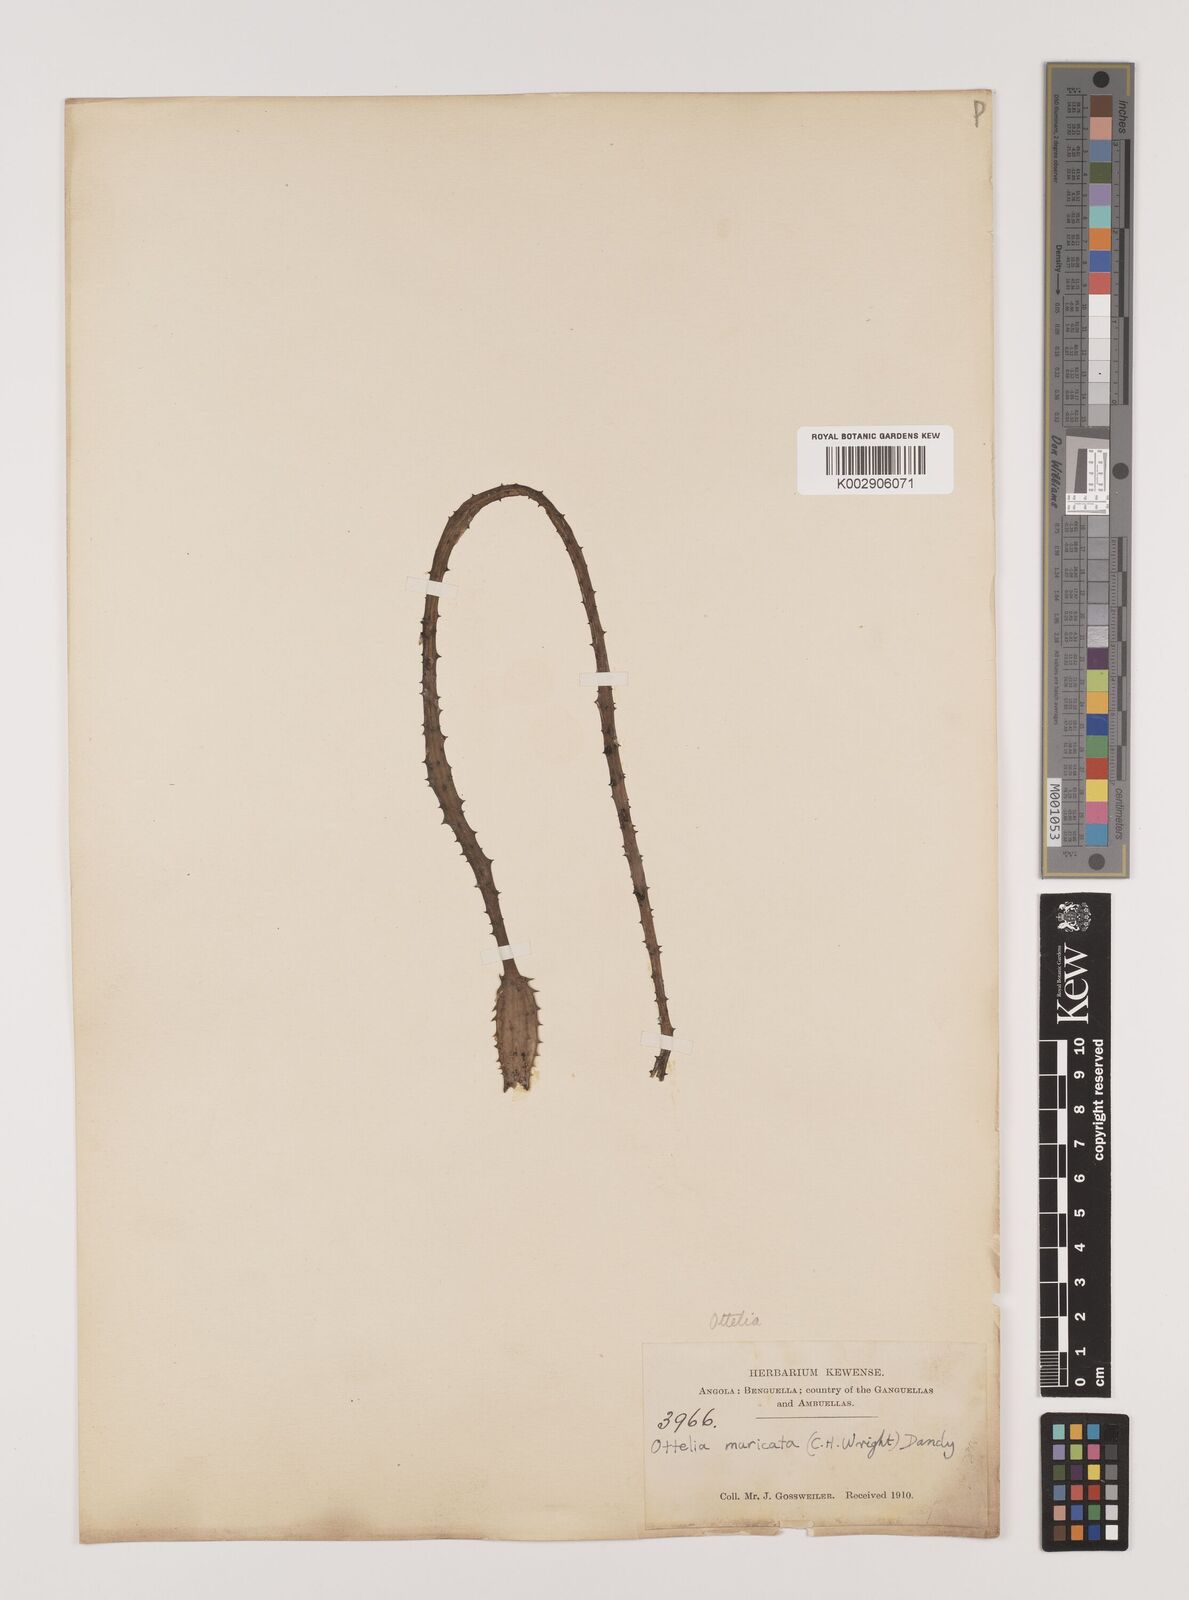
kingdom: Plantae
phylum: Tracheophyta
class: Liliopsida
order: Alismatales
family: Hydrocharitaceae
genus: Ottelia
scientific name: Ottelia muricata
